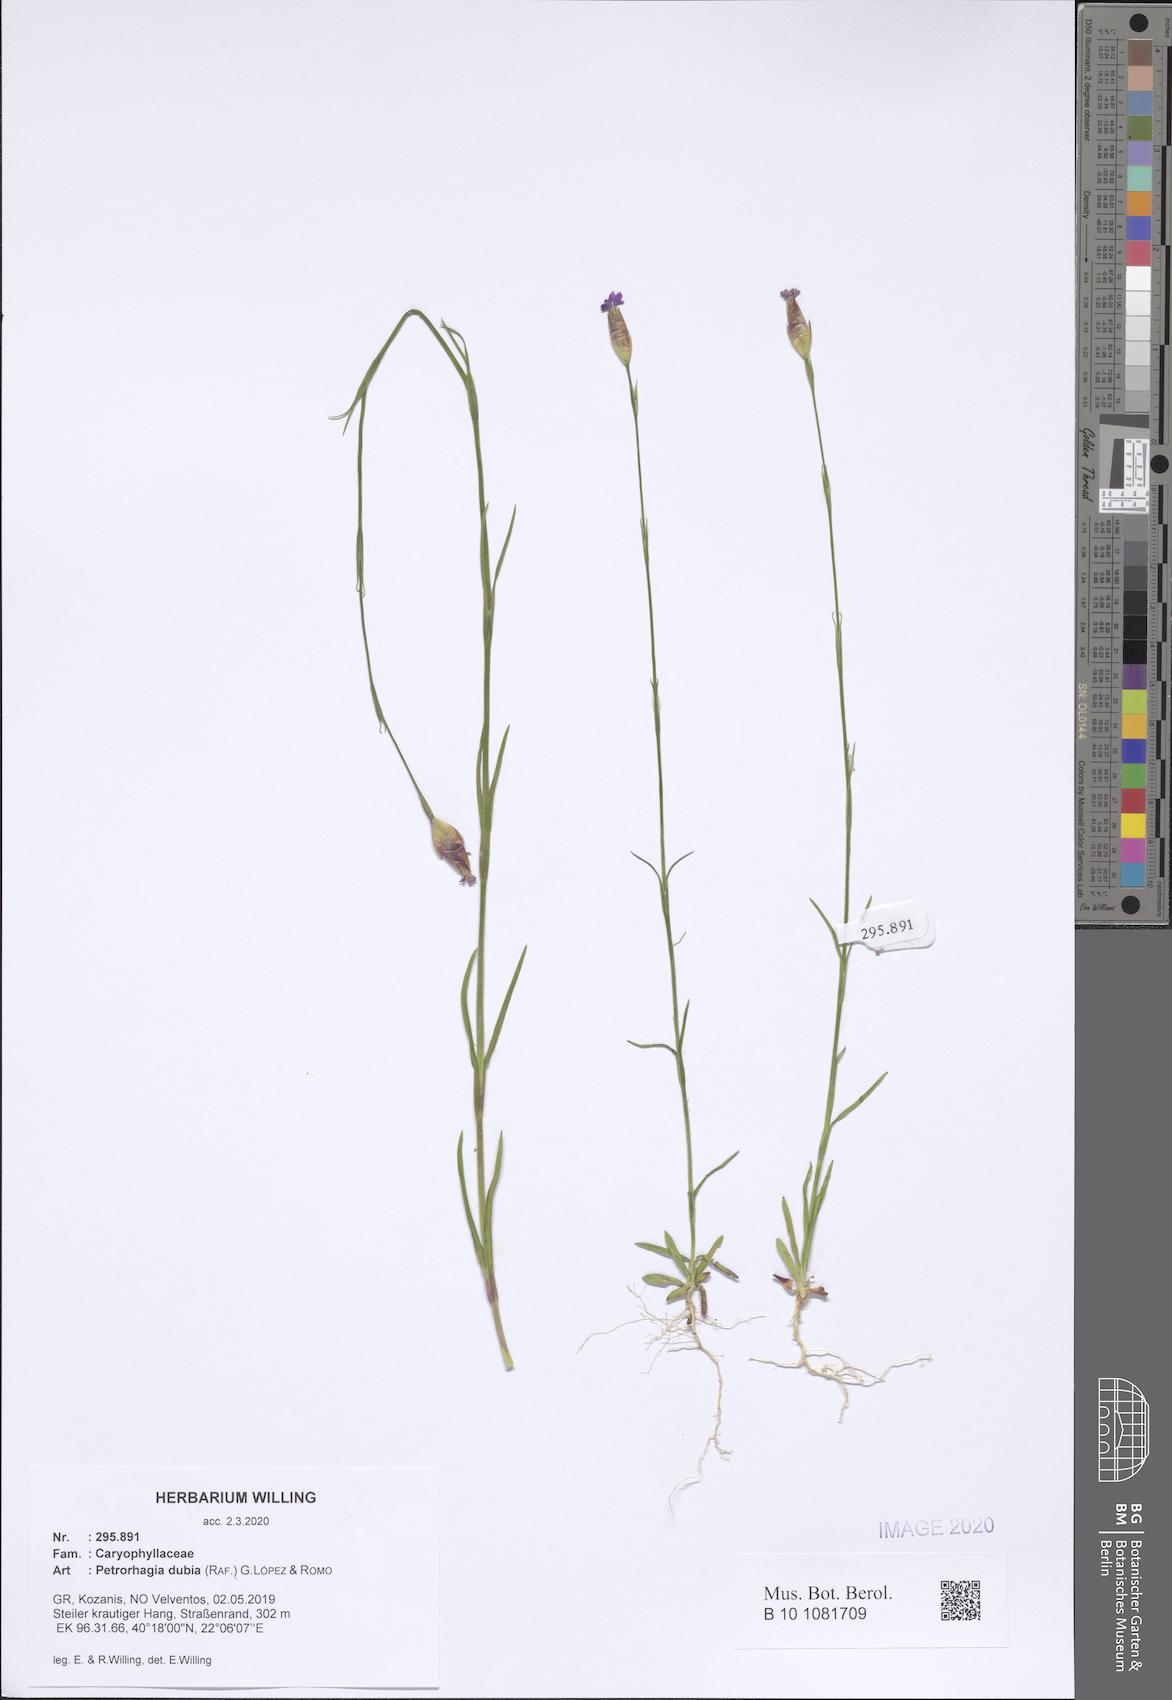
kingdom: Plantae
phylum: Tracheophyta
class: Magnoliopsida
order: Caryophyllales
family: Caryophyllaceae
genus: Petrorhagia
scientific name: Petrorhagia dubia
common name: Hairypink
